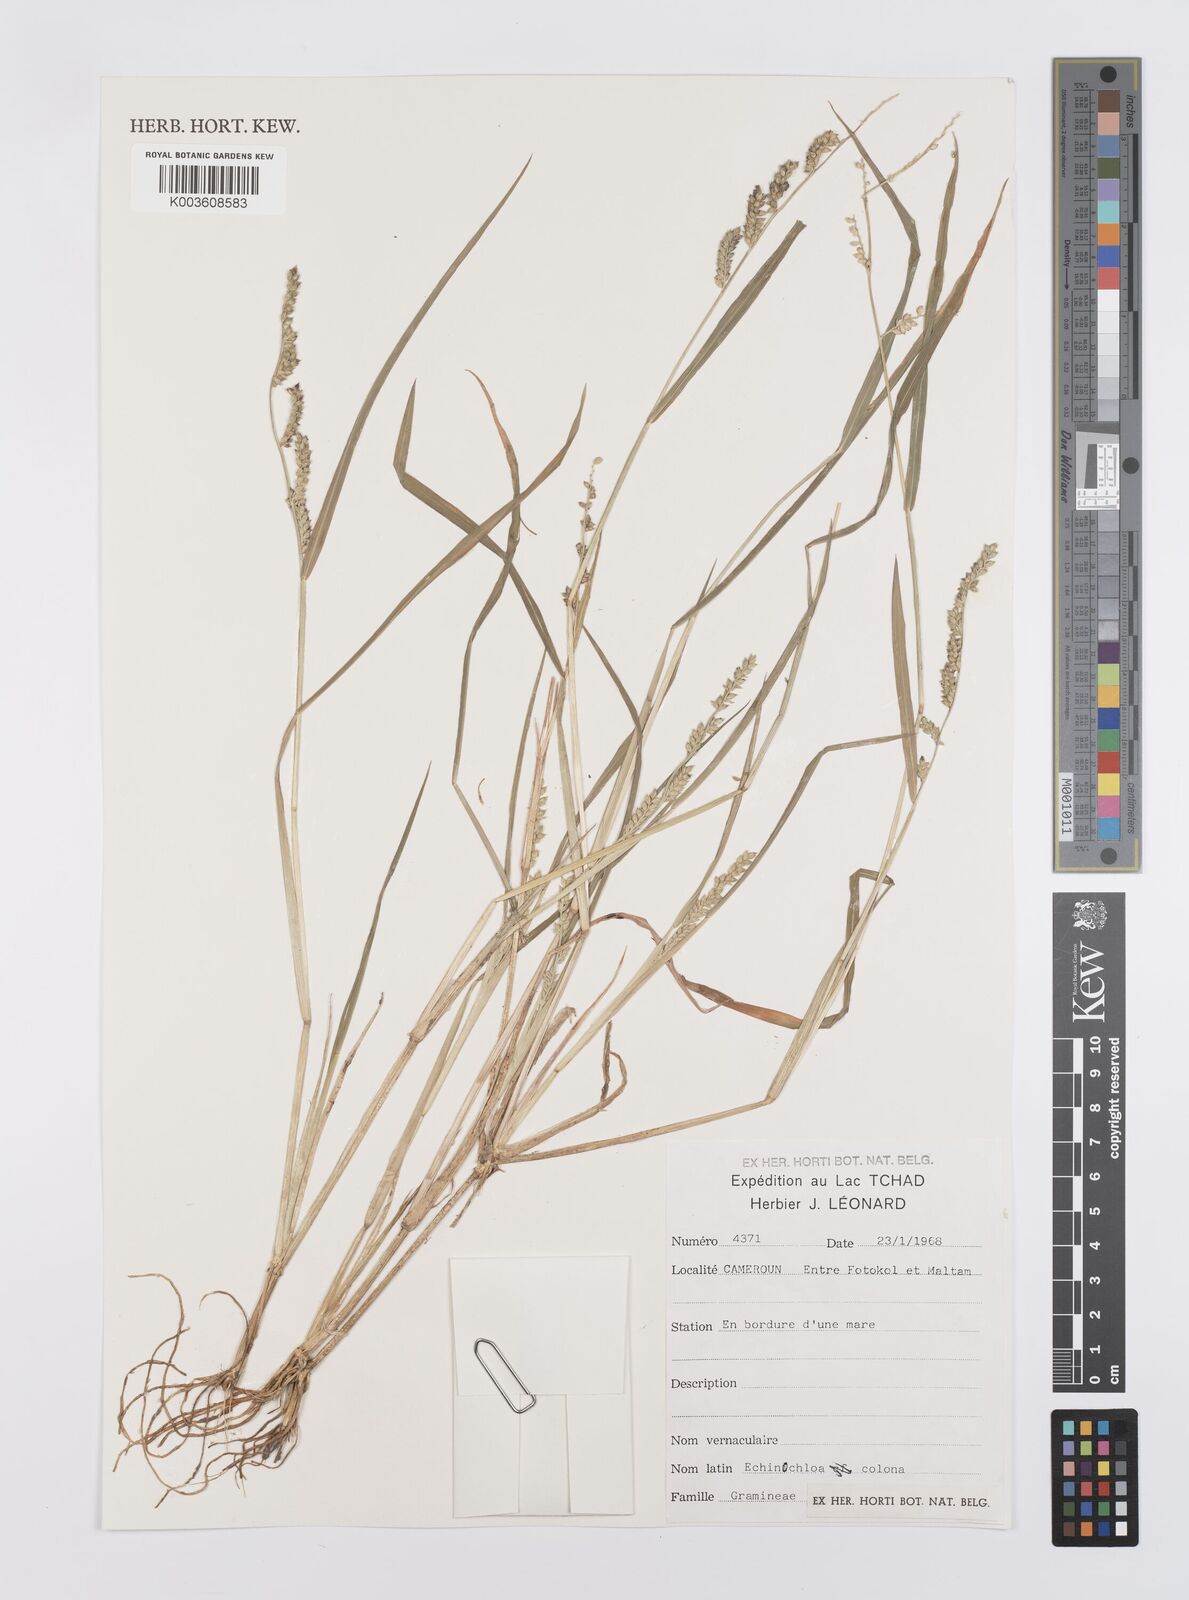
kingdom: Plantae
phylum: Tracheophyta
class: Liliopsida
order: Poales
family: Poaceae
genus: Echinochloa
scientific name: Echinochloa colonum
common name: Jungle rice
